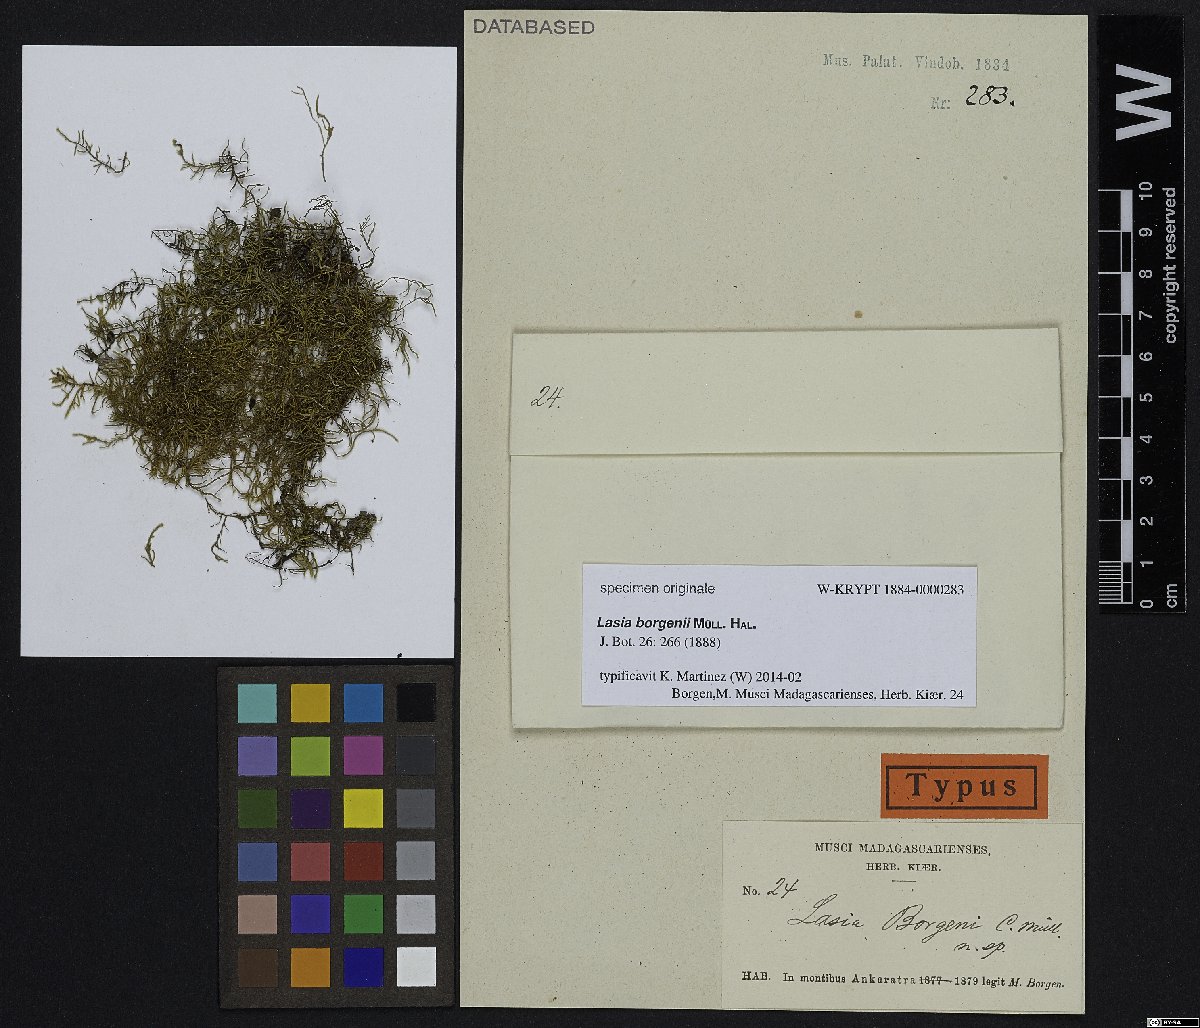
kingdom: Plantae
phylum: Bryophyta
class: Bryopsida
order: Hypnales
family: Neckeraceae
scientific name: Neckeraceae
